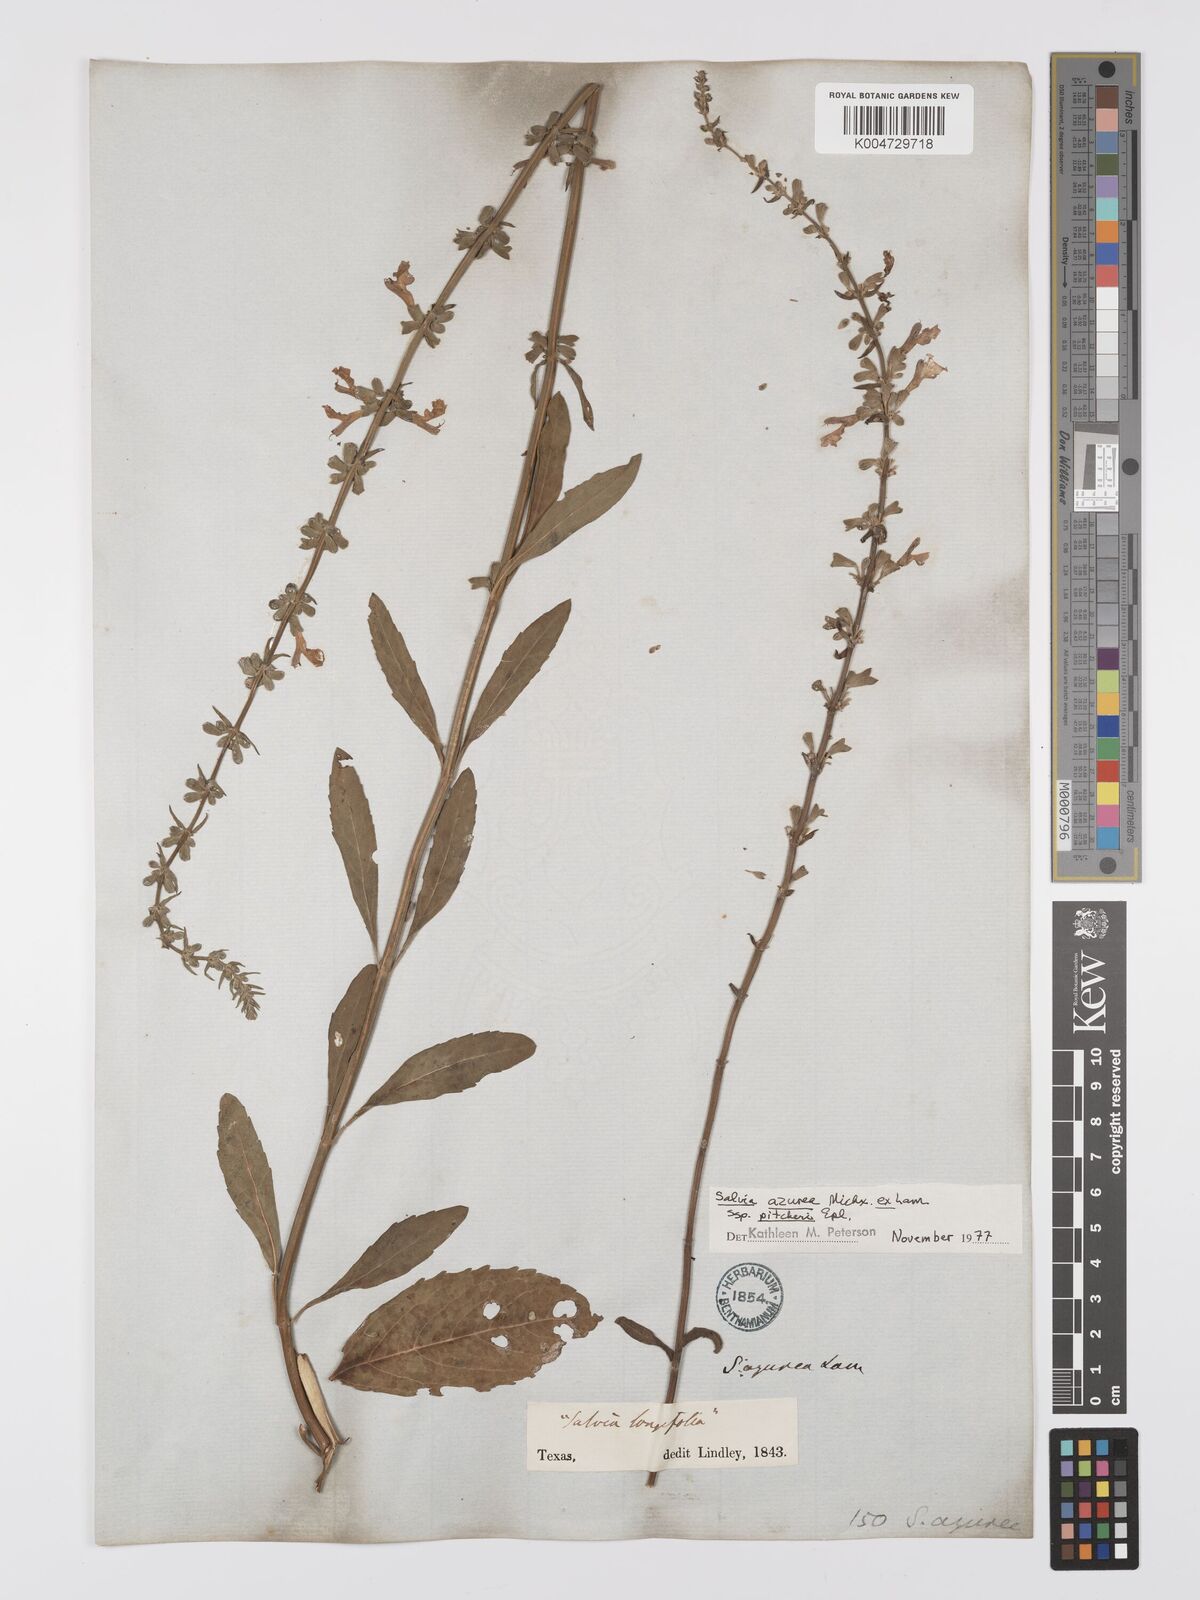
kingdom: Plantae
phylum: Tracheophyta
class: Magnoliopsida
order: Lamiales
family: Lamiaceae
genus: Salvia
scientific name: Salvia azurea
